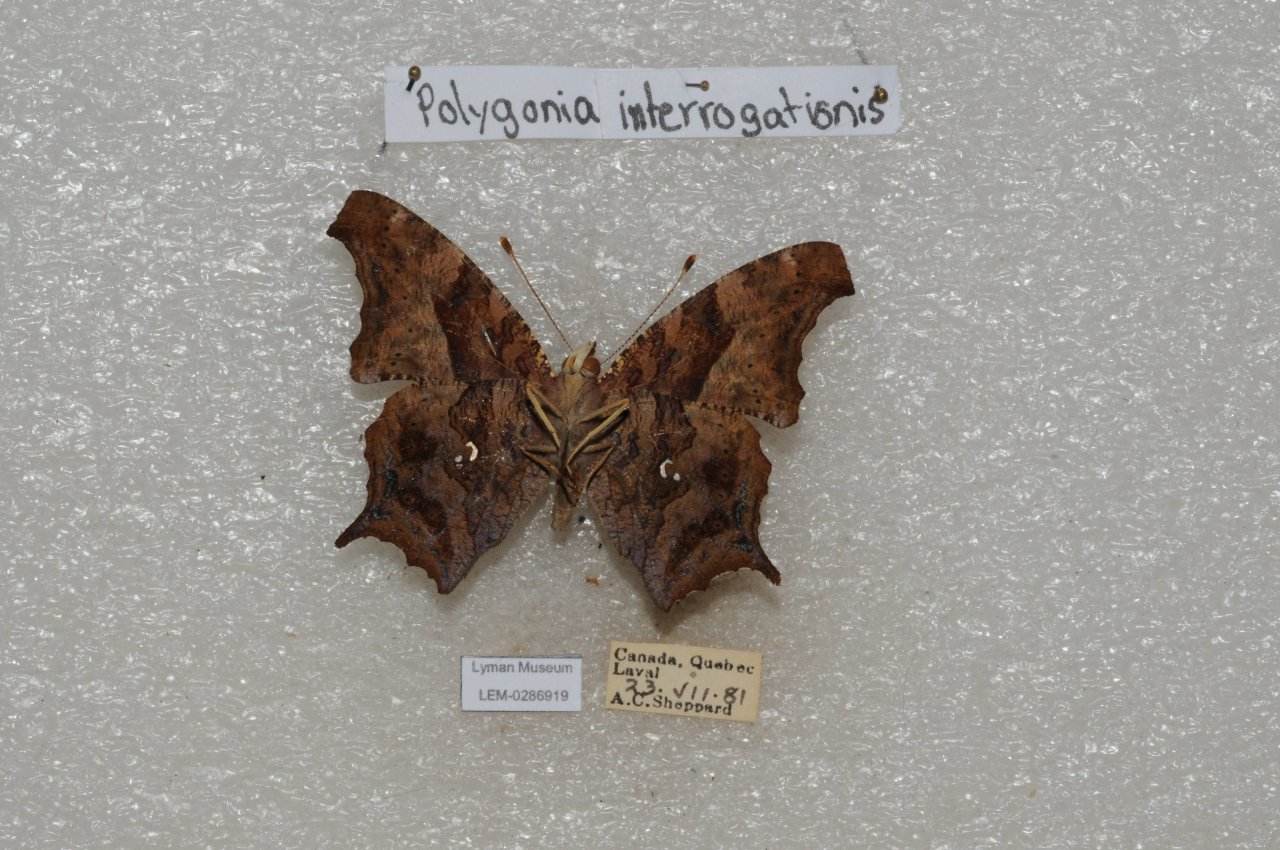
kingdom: Animalia
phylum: Arthropoda
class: Insecta
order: Lepidoptera
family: Nymphalidae
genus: Polygonia
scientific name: Polygonia interrogationis
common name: Question Mark
